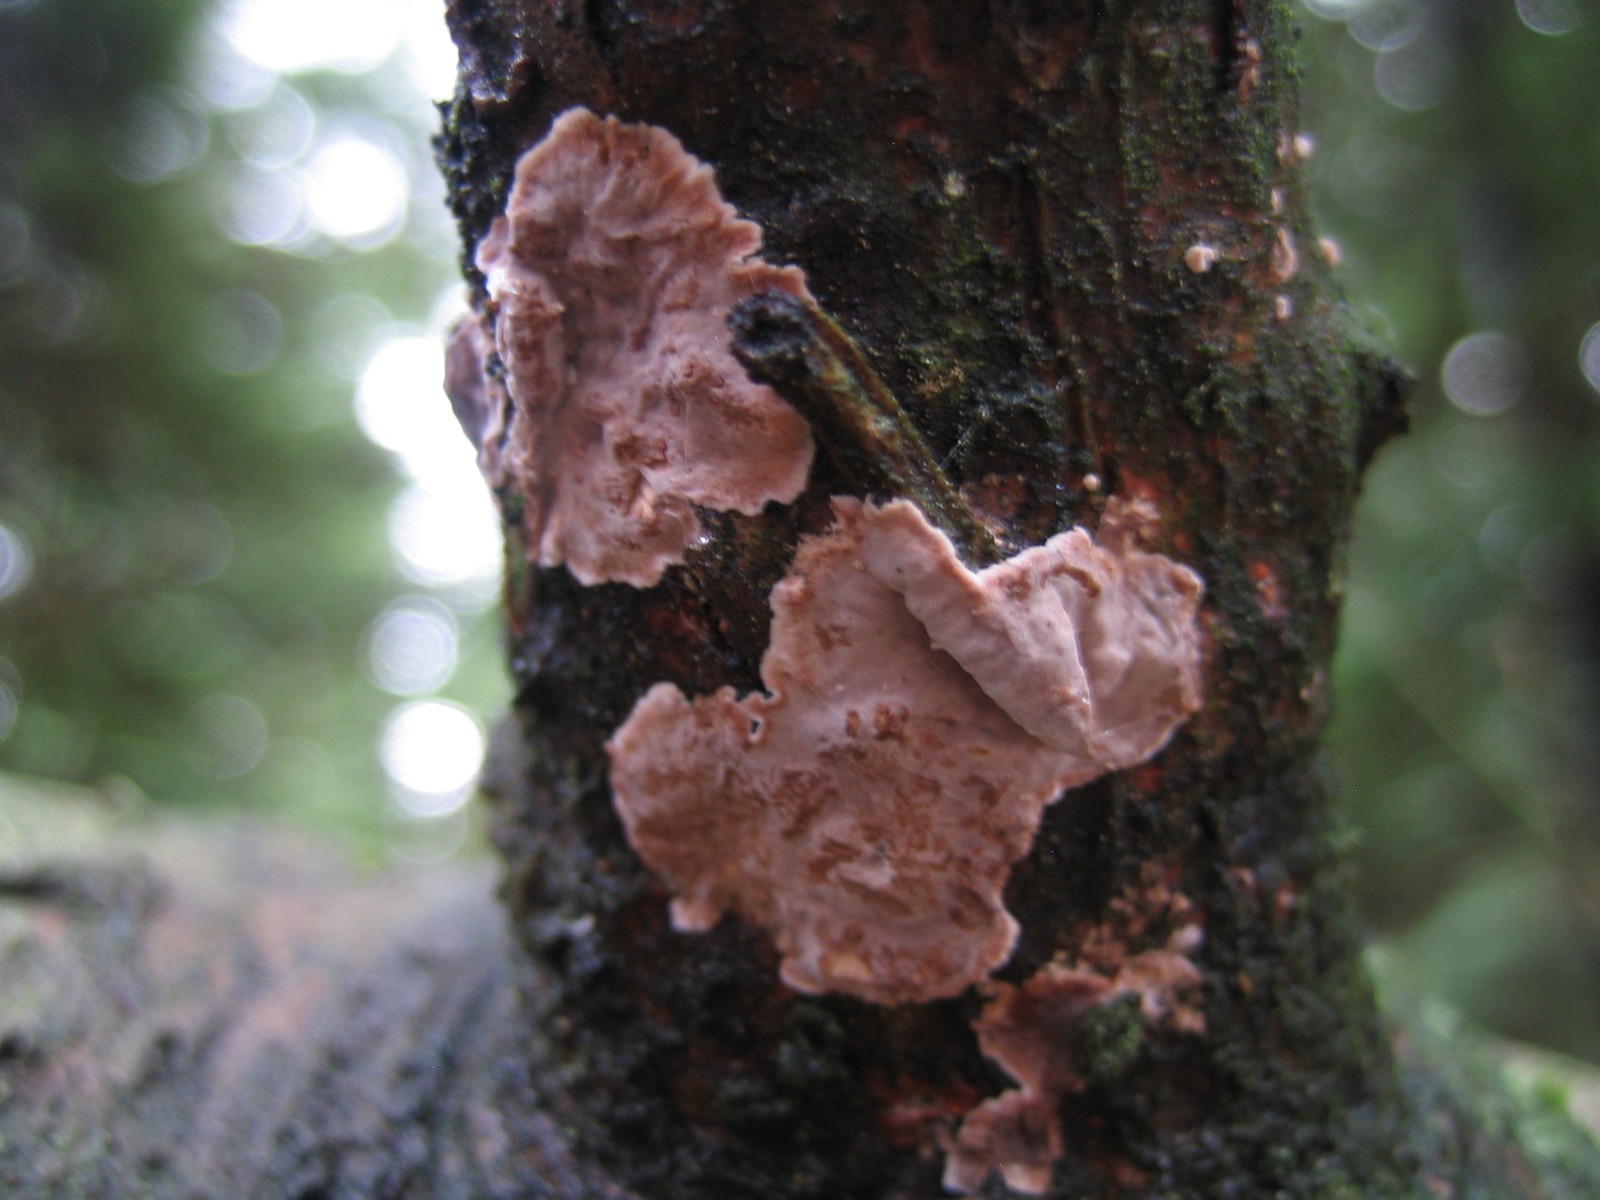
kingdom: Fungi
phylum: Basidiomycota
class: Agaricomycetes
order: Russulales
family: Echinodontiaceae
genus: Amylostereum
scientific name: Amylostereum chailletii
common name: gran-lædersvamp
